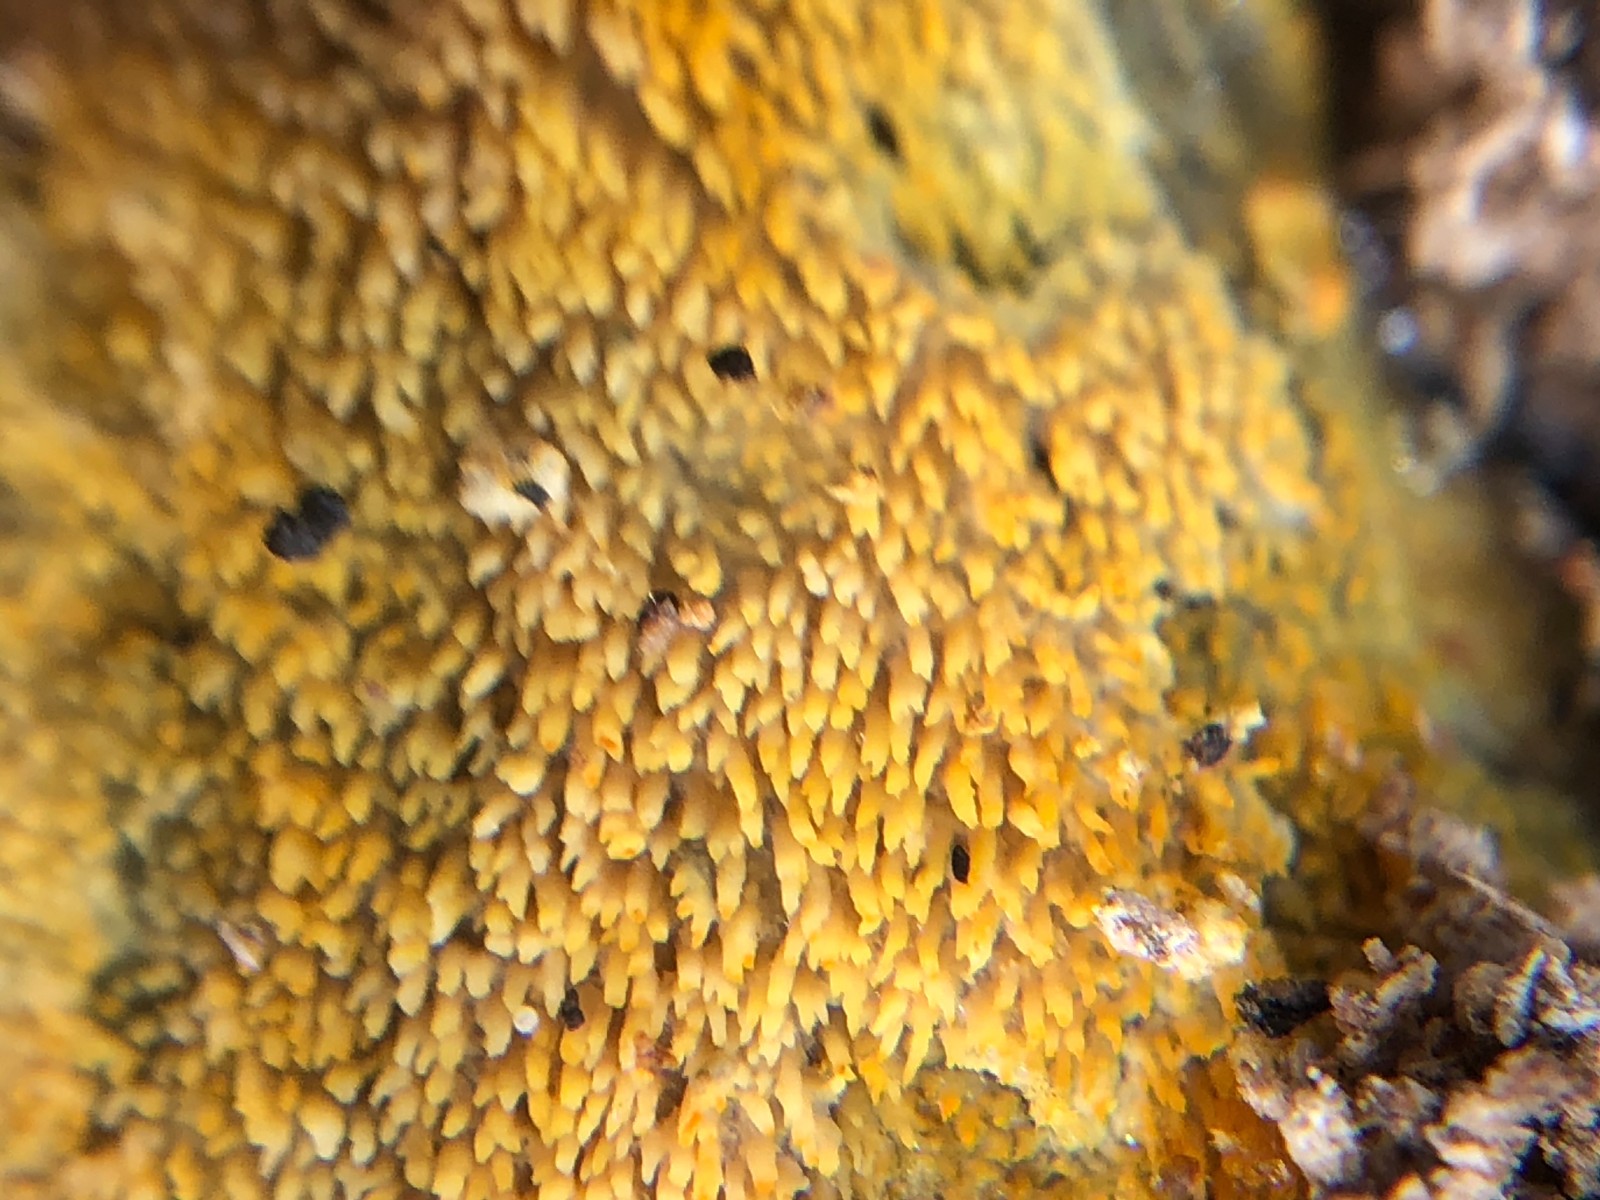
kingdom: Fungi
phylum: Basidiomycota
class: Agaricomycetes
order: Polyporales
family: Meruliaceae
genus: Mycoacia
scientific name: Mycoacia
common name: vokspig
